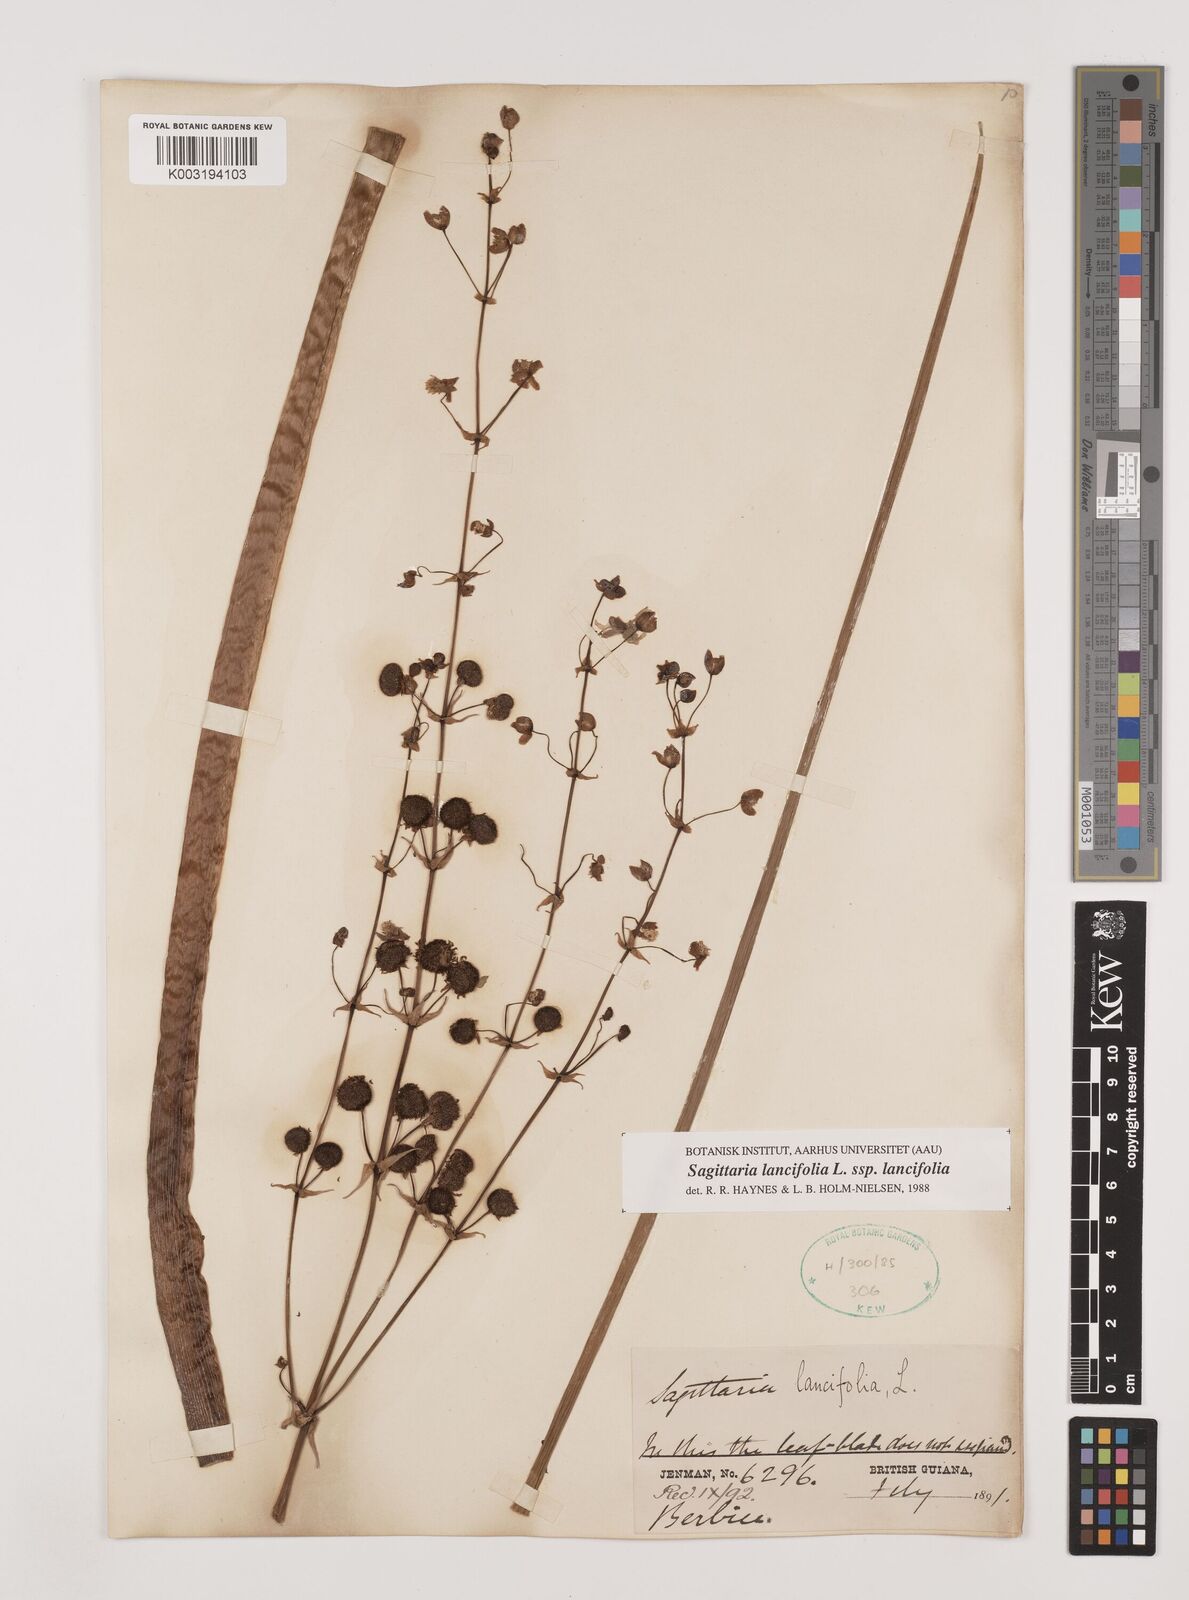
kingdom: Plantae
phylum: Tracheophyta
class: Liliopsida
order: Alismatales
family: Alismataceae
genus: Sagittaria
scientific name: Sagittaria lancifolia
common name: Lance-leaf arrowhead
